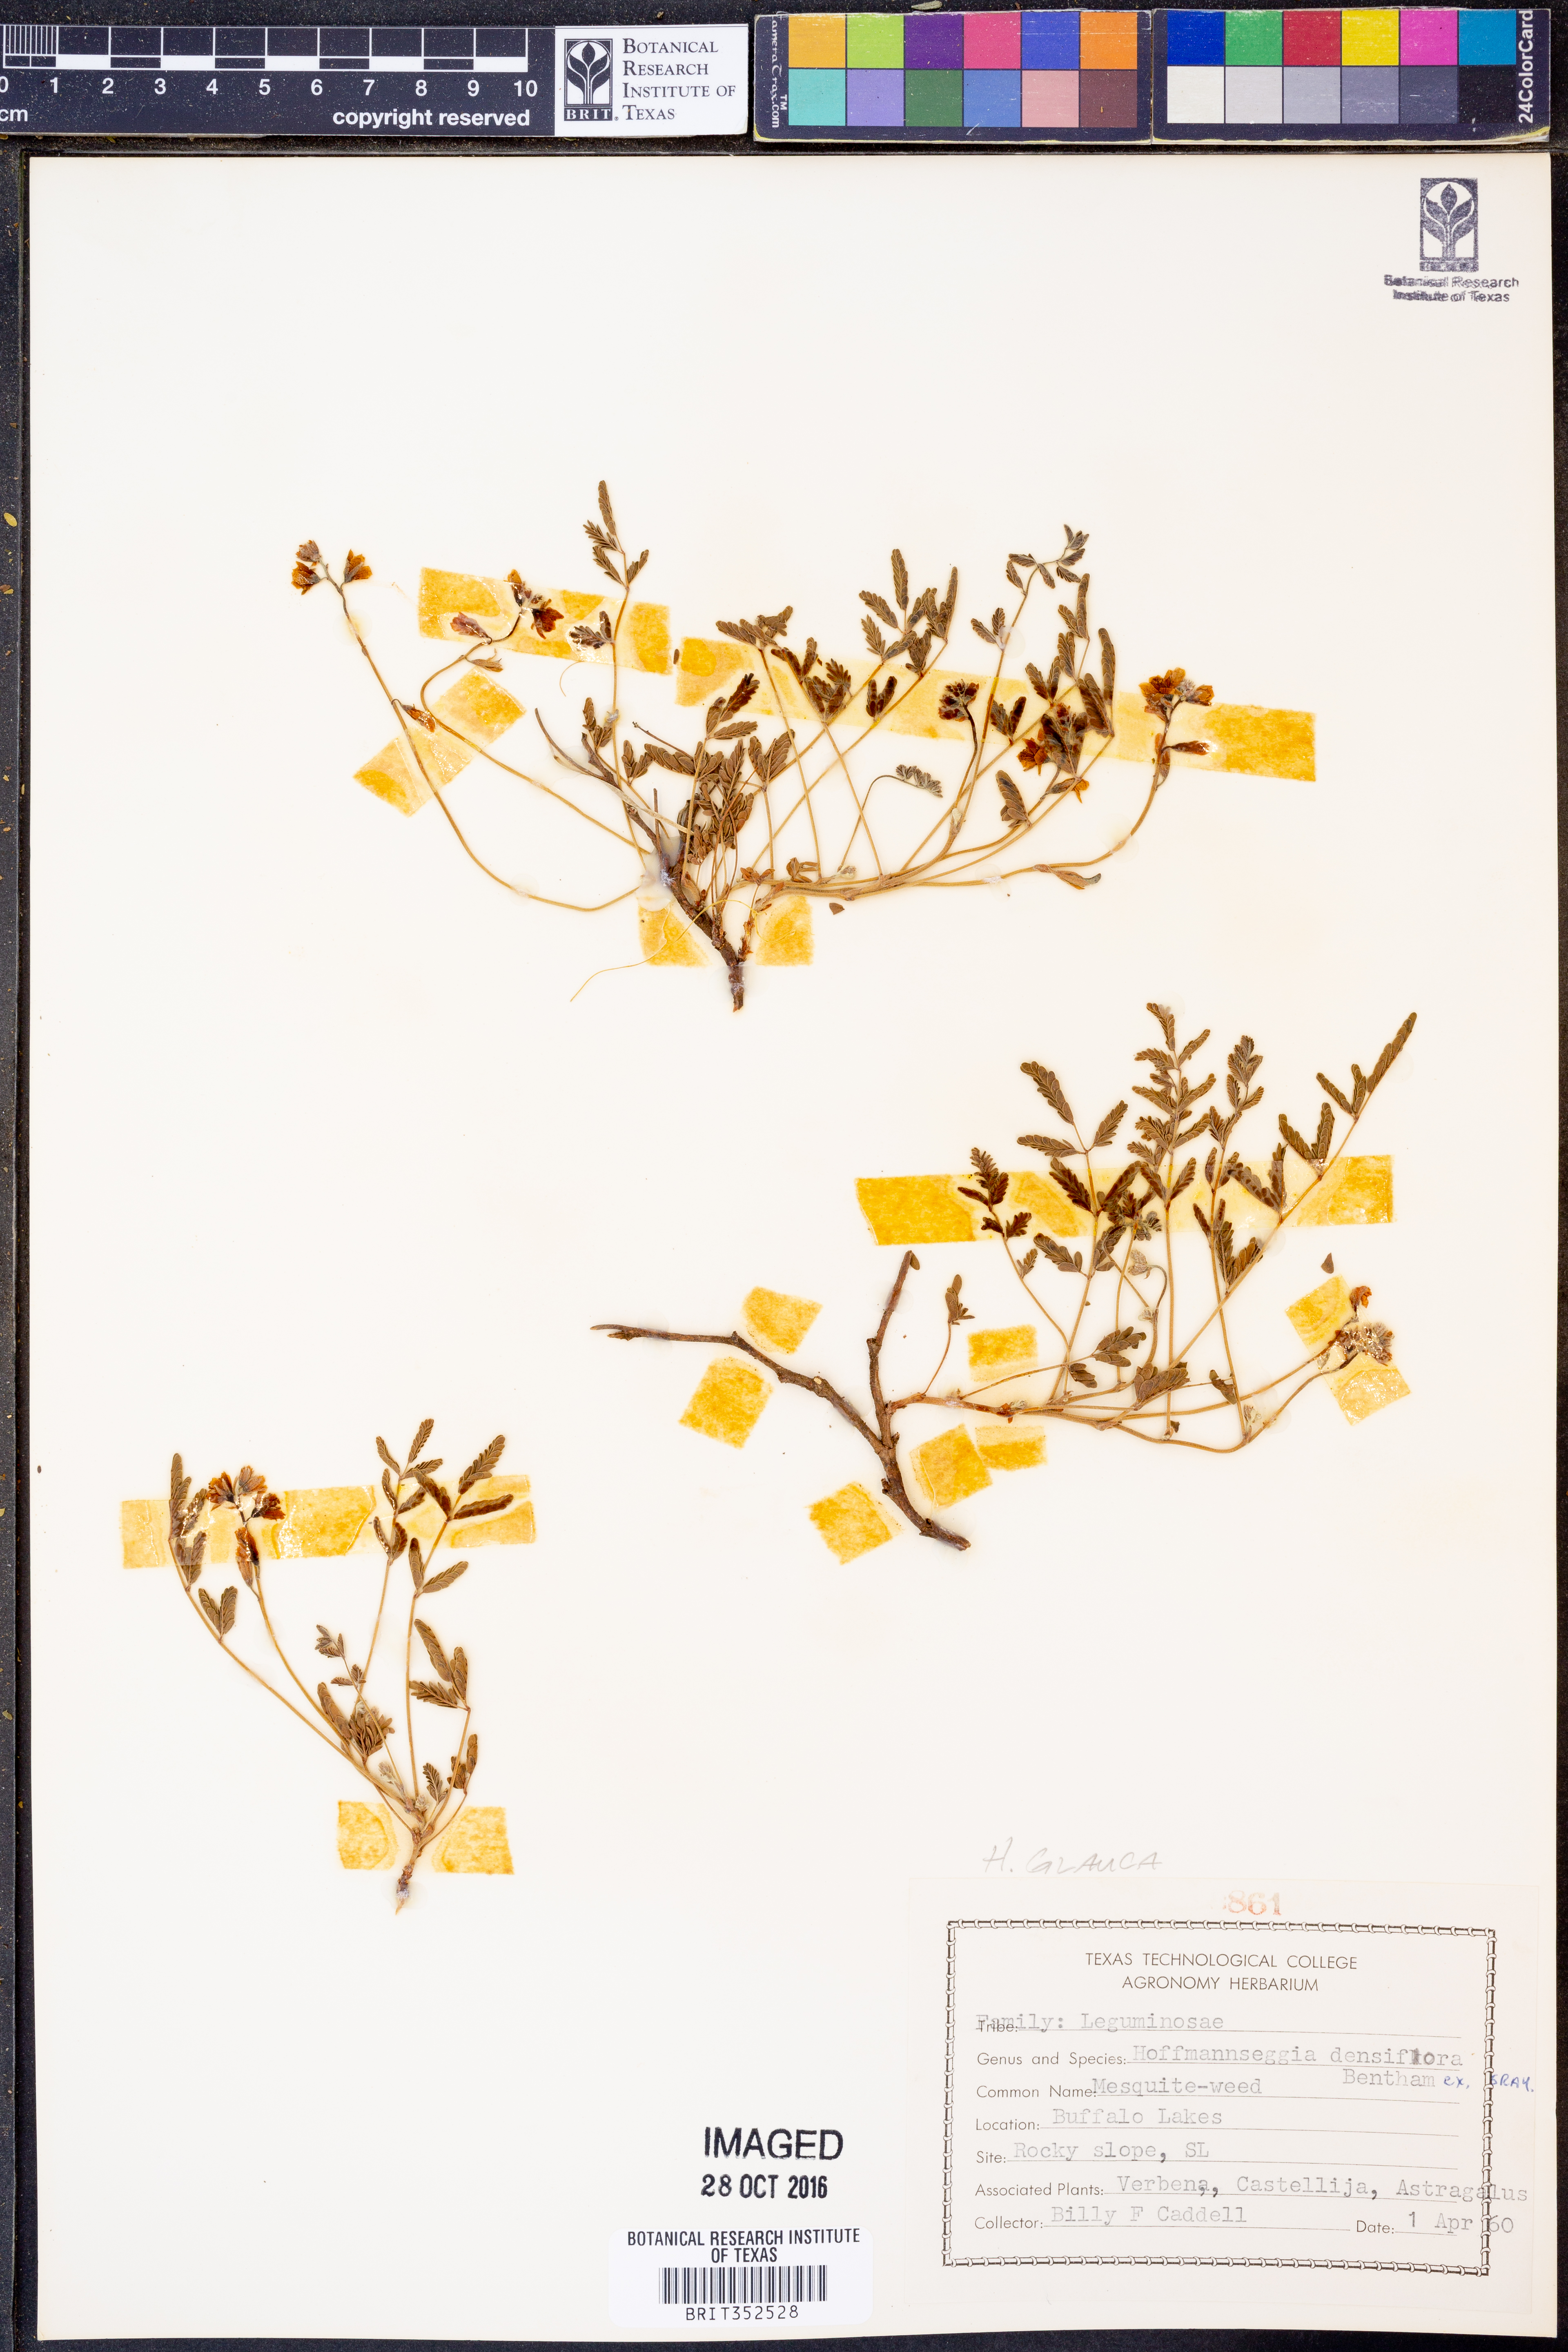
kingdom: Plantae
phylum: Tracheophyta
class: Magnoliopsida
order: Fabales
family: Fabaceae
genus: Hoffmannseggia
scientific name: Hoffmannseggia glauca
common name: Pignut
